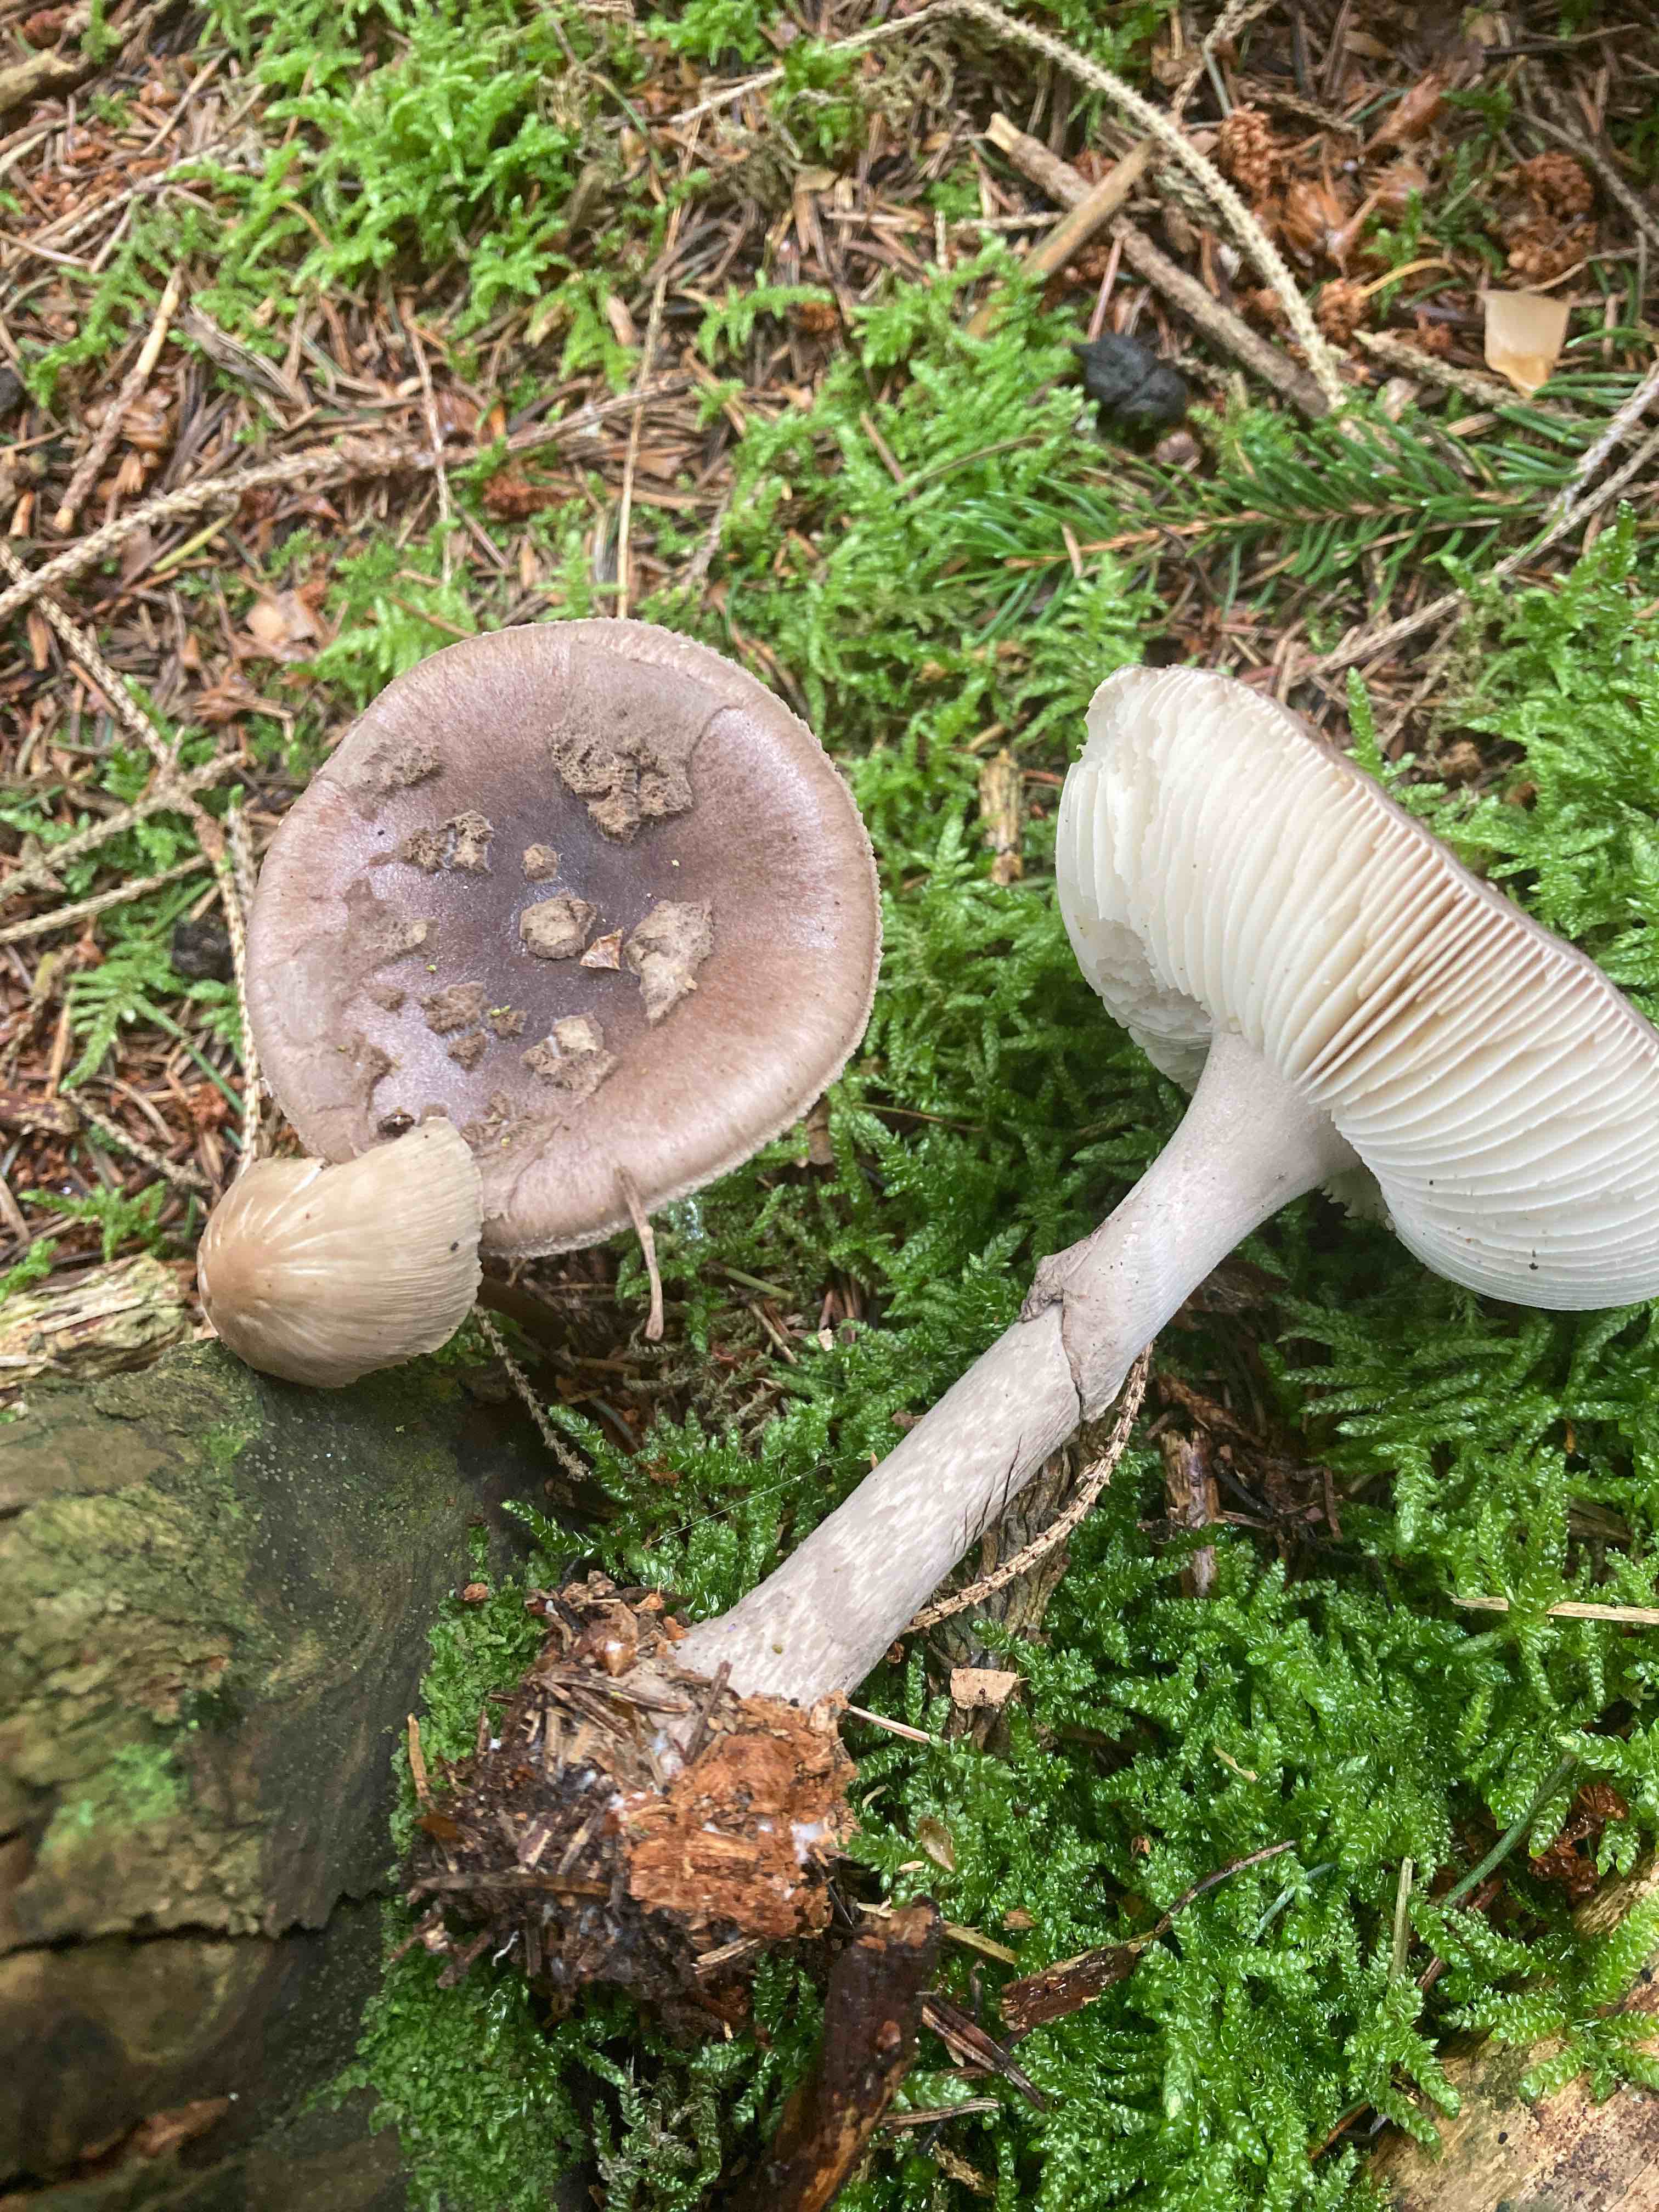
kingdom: Fungi
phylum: Basidiomycota
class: Agaricomycetes
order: Agaricales
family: Amanitaceae
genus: Amanita
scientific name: Amanita porphyria
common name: porfyr-fluesvamp
